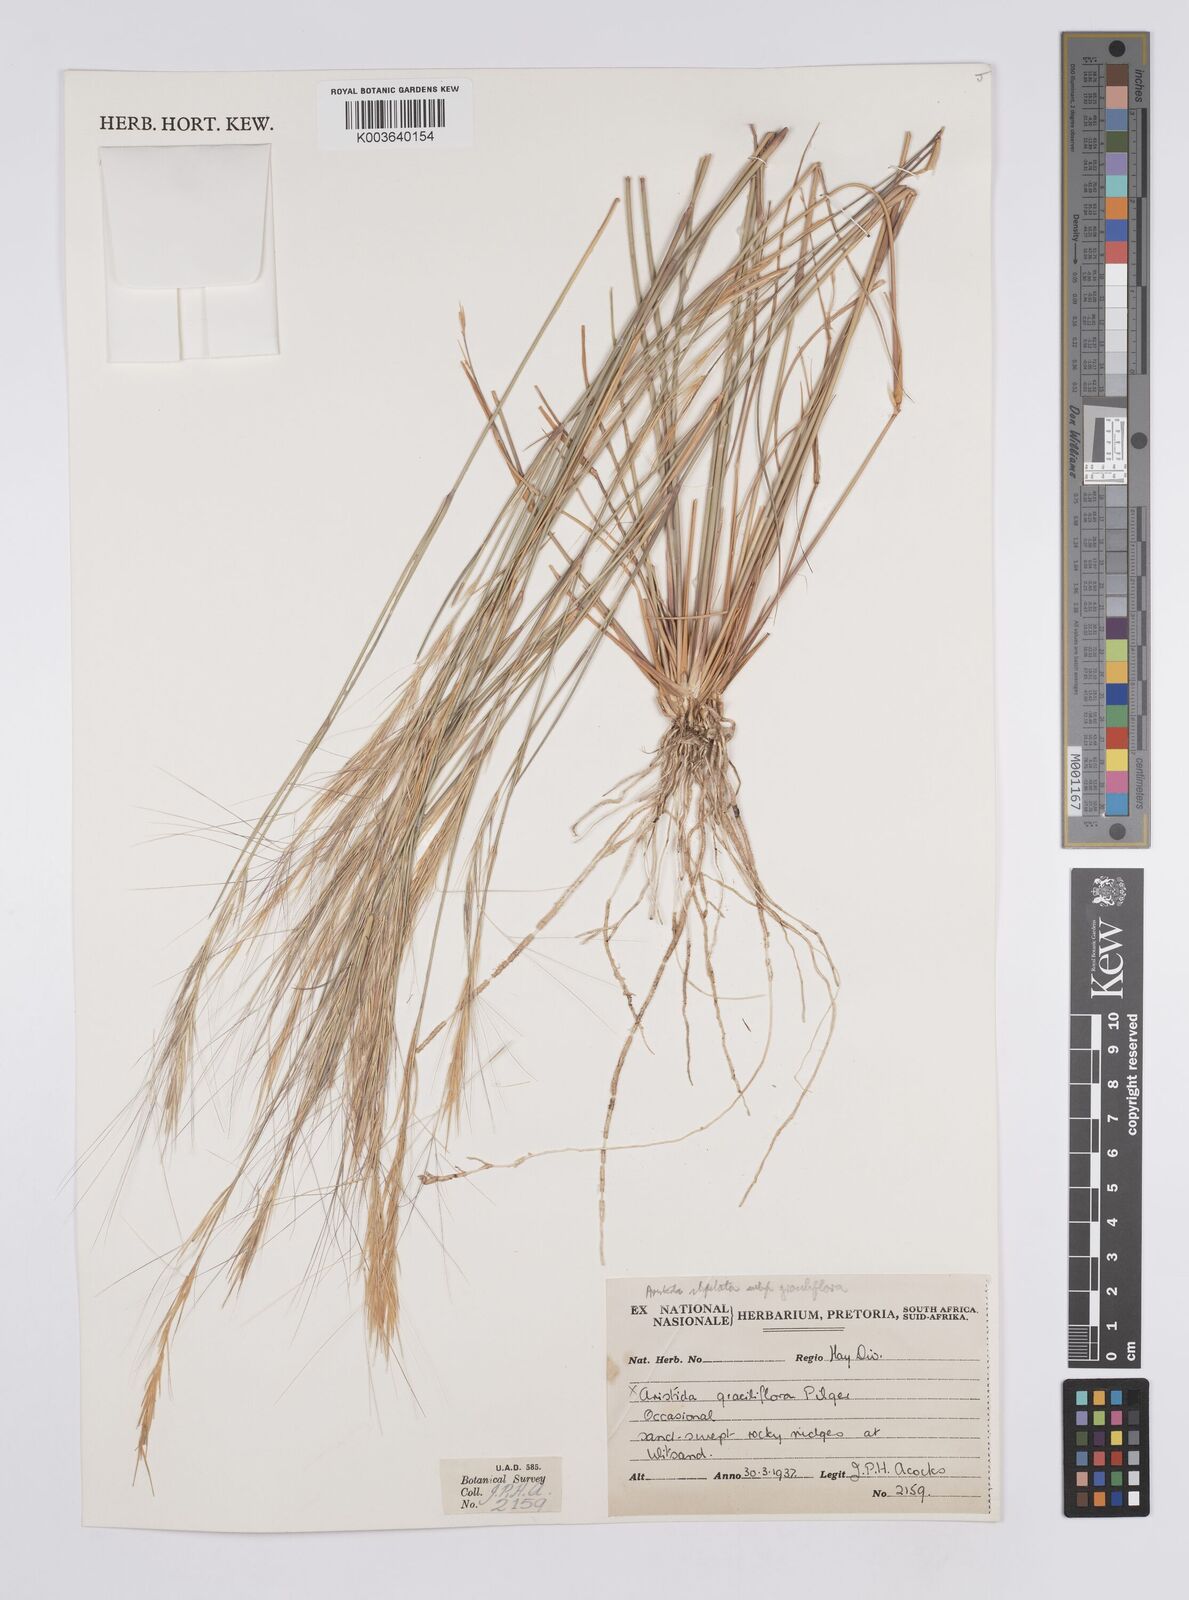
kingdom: Plantae
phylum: Tracheophyta
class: Liliopsida
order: Poales
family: Poaceae
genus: Aristida
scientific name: Aristida stipitata
